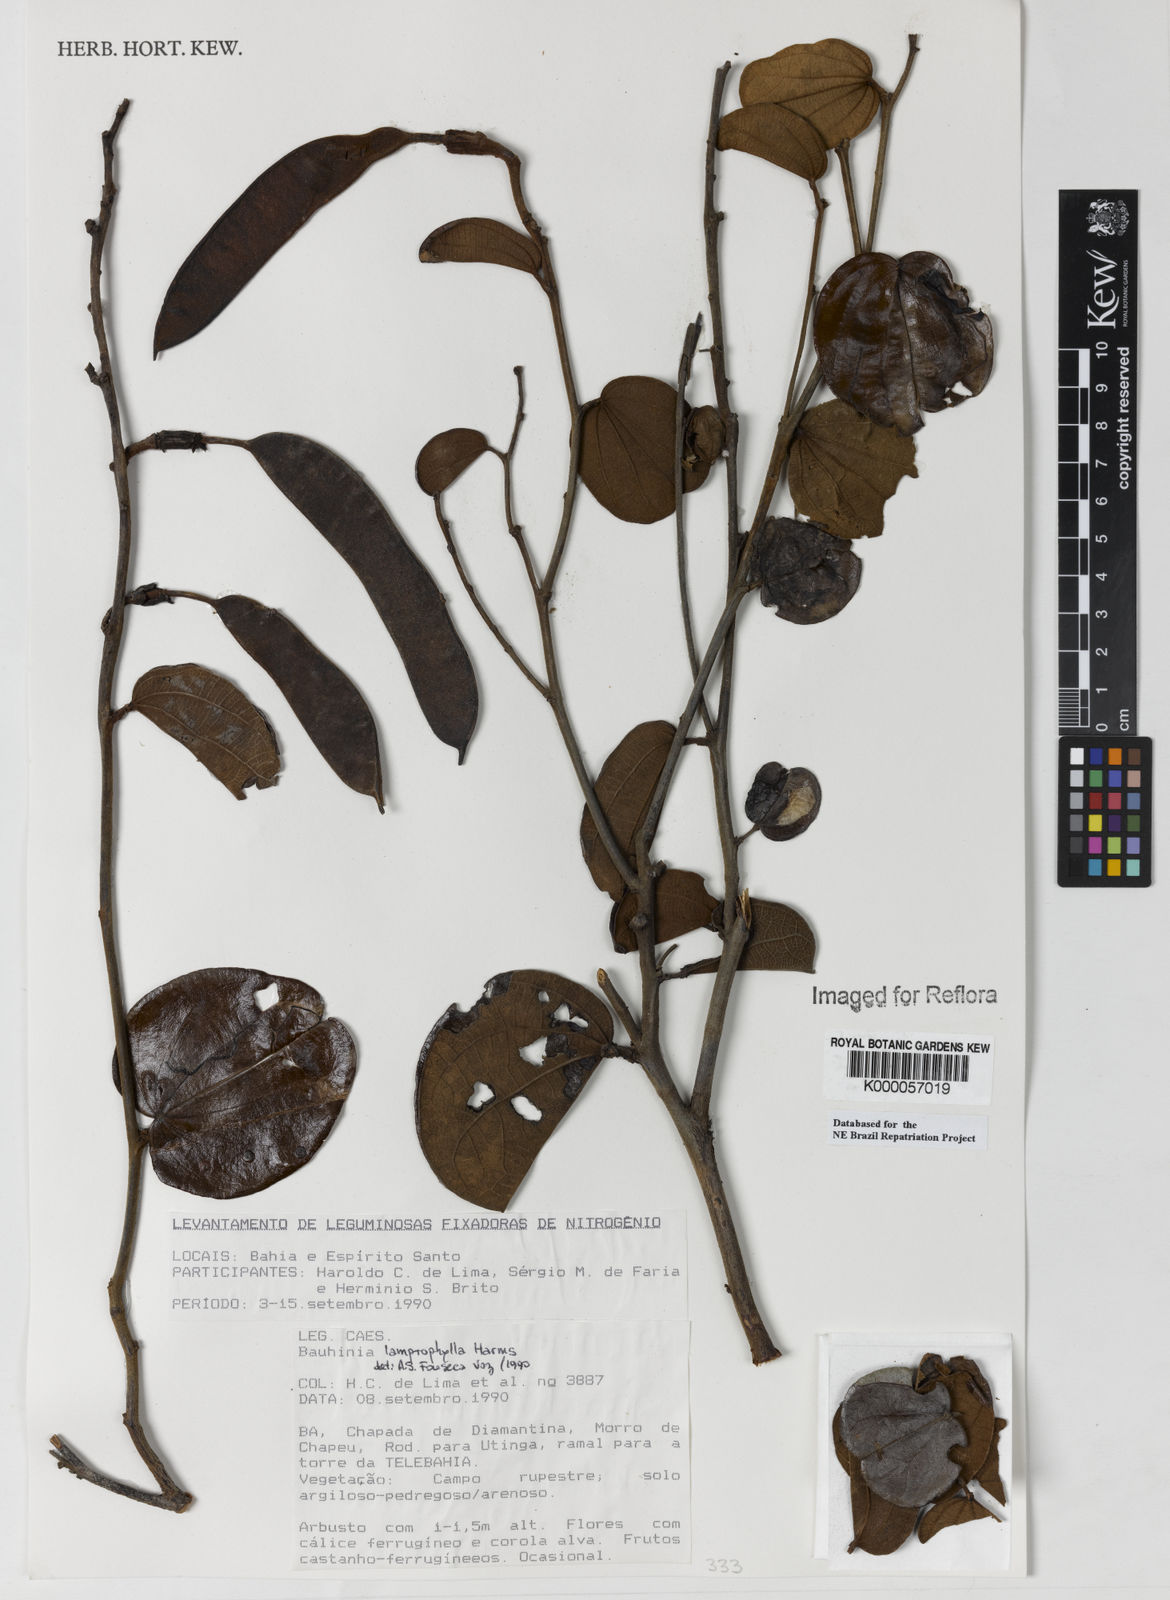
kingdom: Plantae
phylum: Tracheophyta
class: Magnoliopsida
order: Fabales
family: Fabaceae
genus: Bauhinia
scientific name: Bauhinia acuruana
